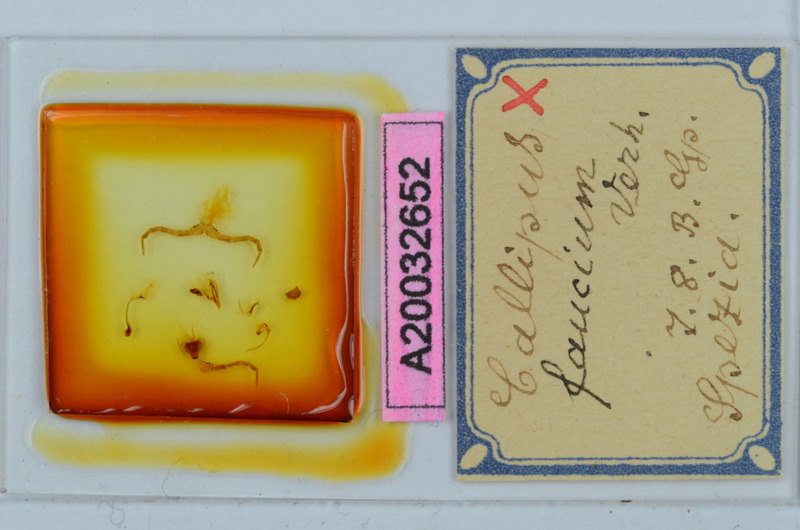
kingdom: Animalia
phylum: Arthropoda
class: Diplopoda
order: Callipodida
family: Callipodidae
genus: Callipus
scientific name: Callipus foetidissimus
